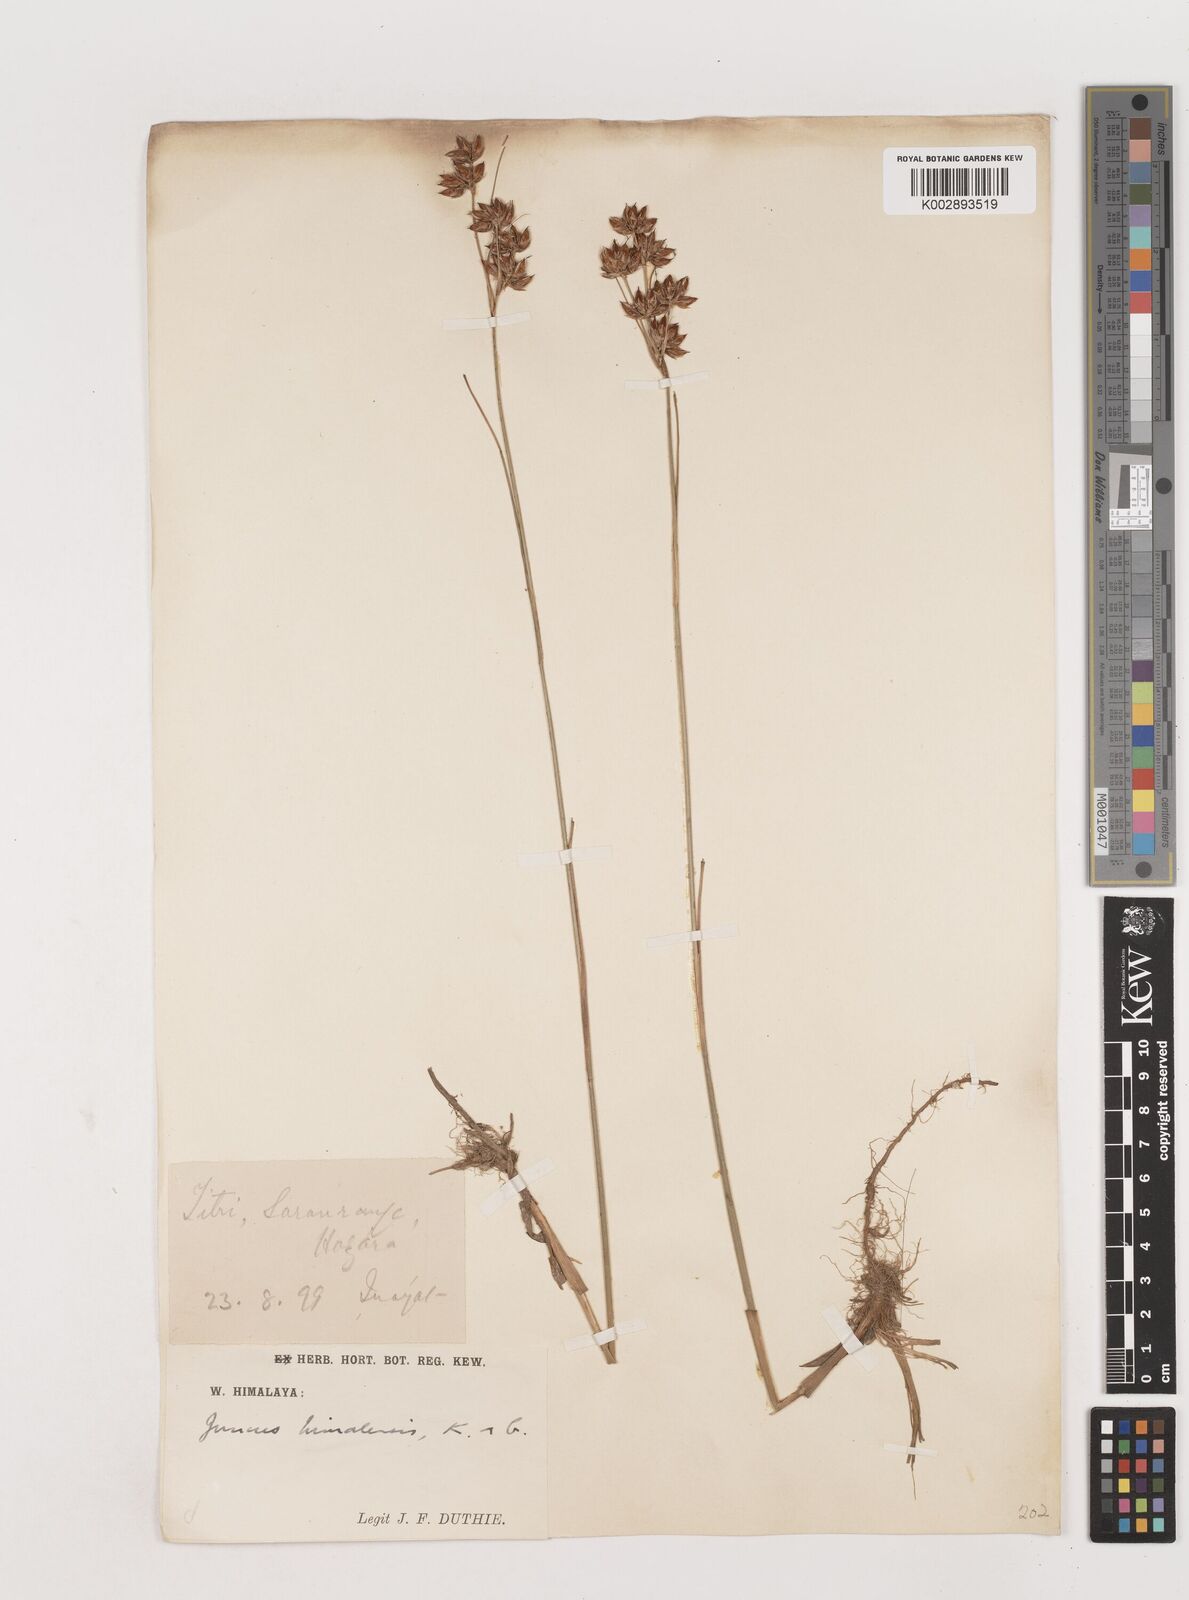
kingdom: Plantae
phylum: Tracheophyta
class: Liliopsida
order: Poales
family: Juncaceae
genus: Juncus
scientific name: Juncus himalensis
